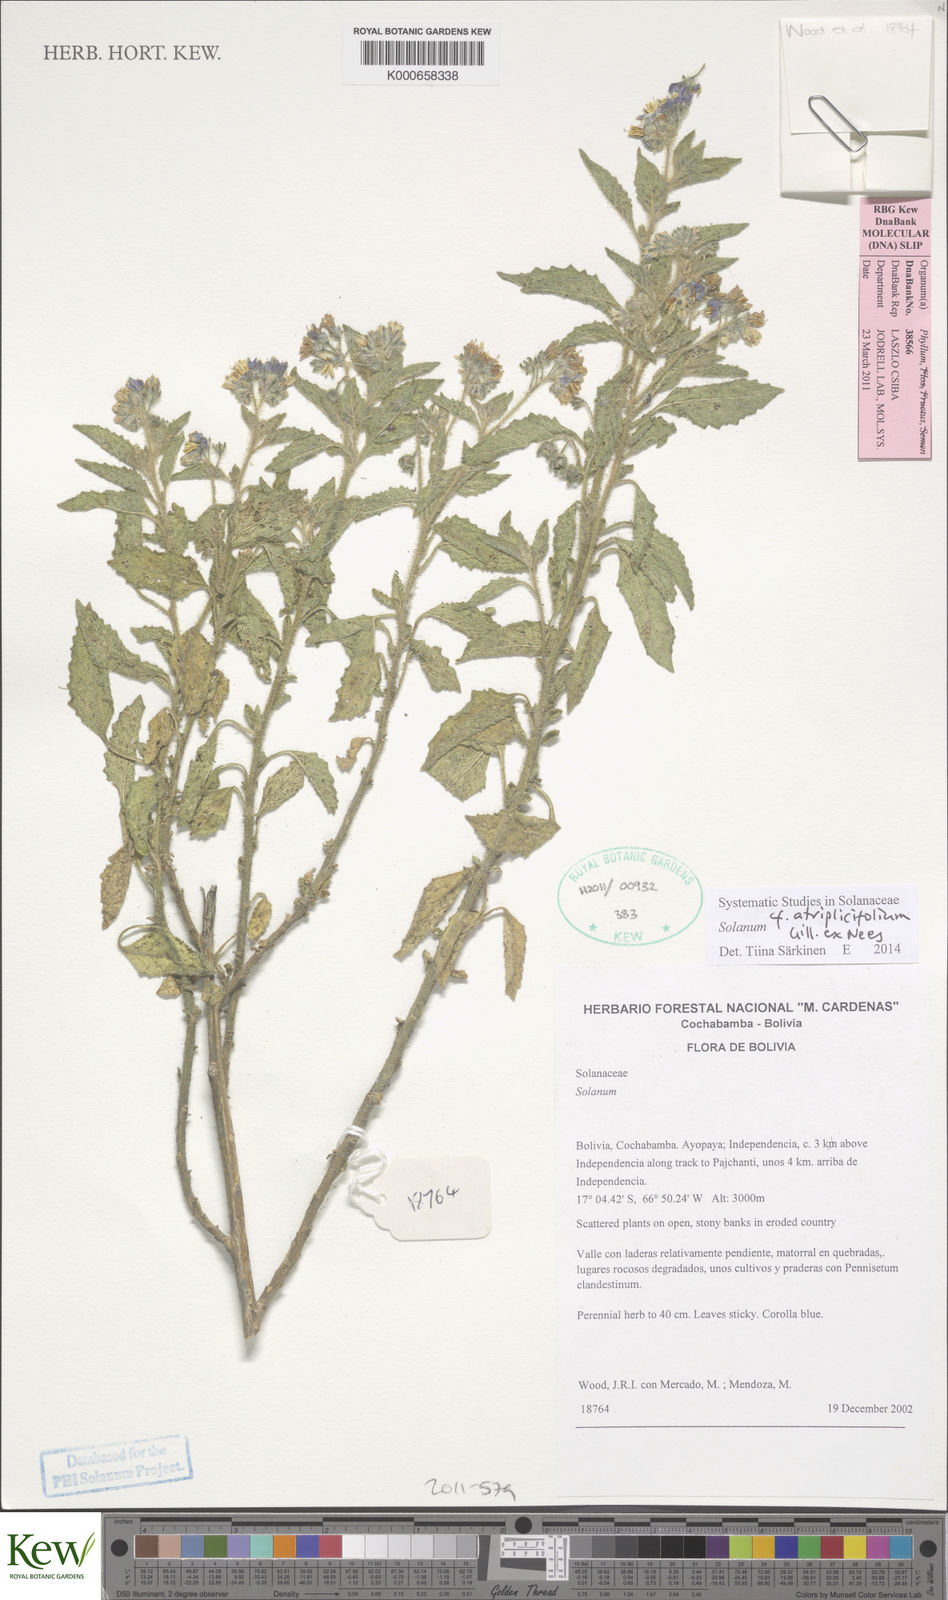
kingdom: Plantae
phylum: Tracheophyta
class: Magnoliopsida
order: Solanales
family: Solanaceae
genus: Solanum
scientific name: Solanum tweedianum
